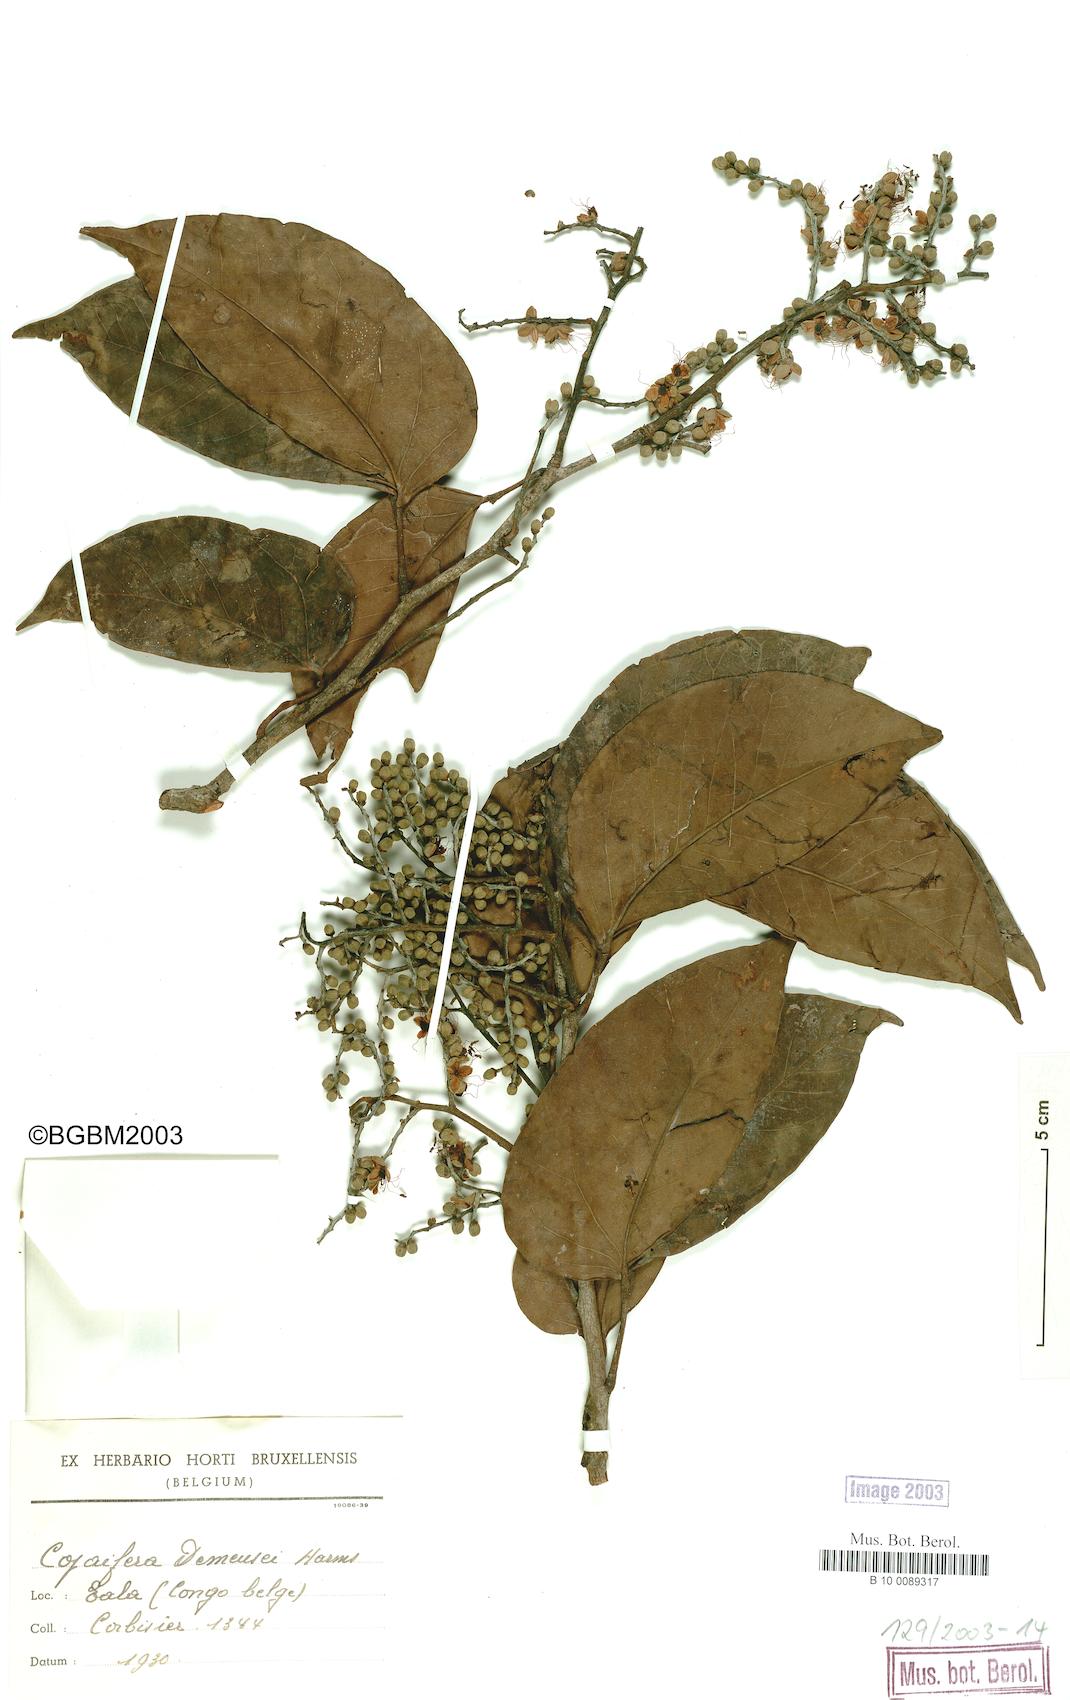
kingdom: Plantae
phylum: Tracheophyta
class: Magnoliopsida
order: Fabales
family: Fabaceae
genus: Guibourtia
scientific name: Guibourtia demeusei
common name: African rosewood
